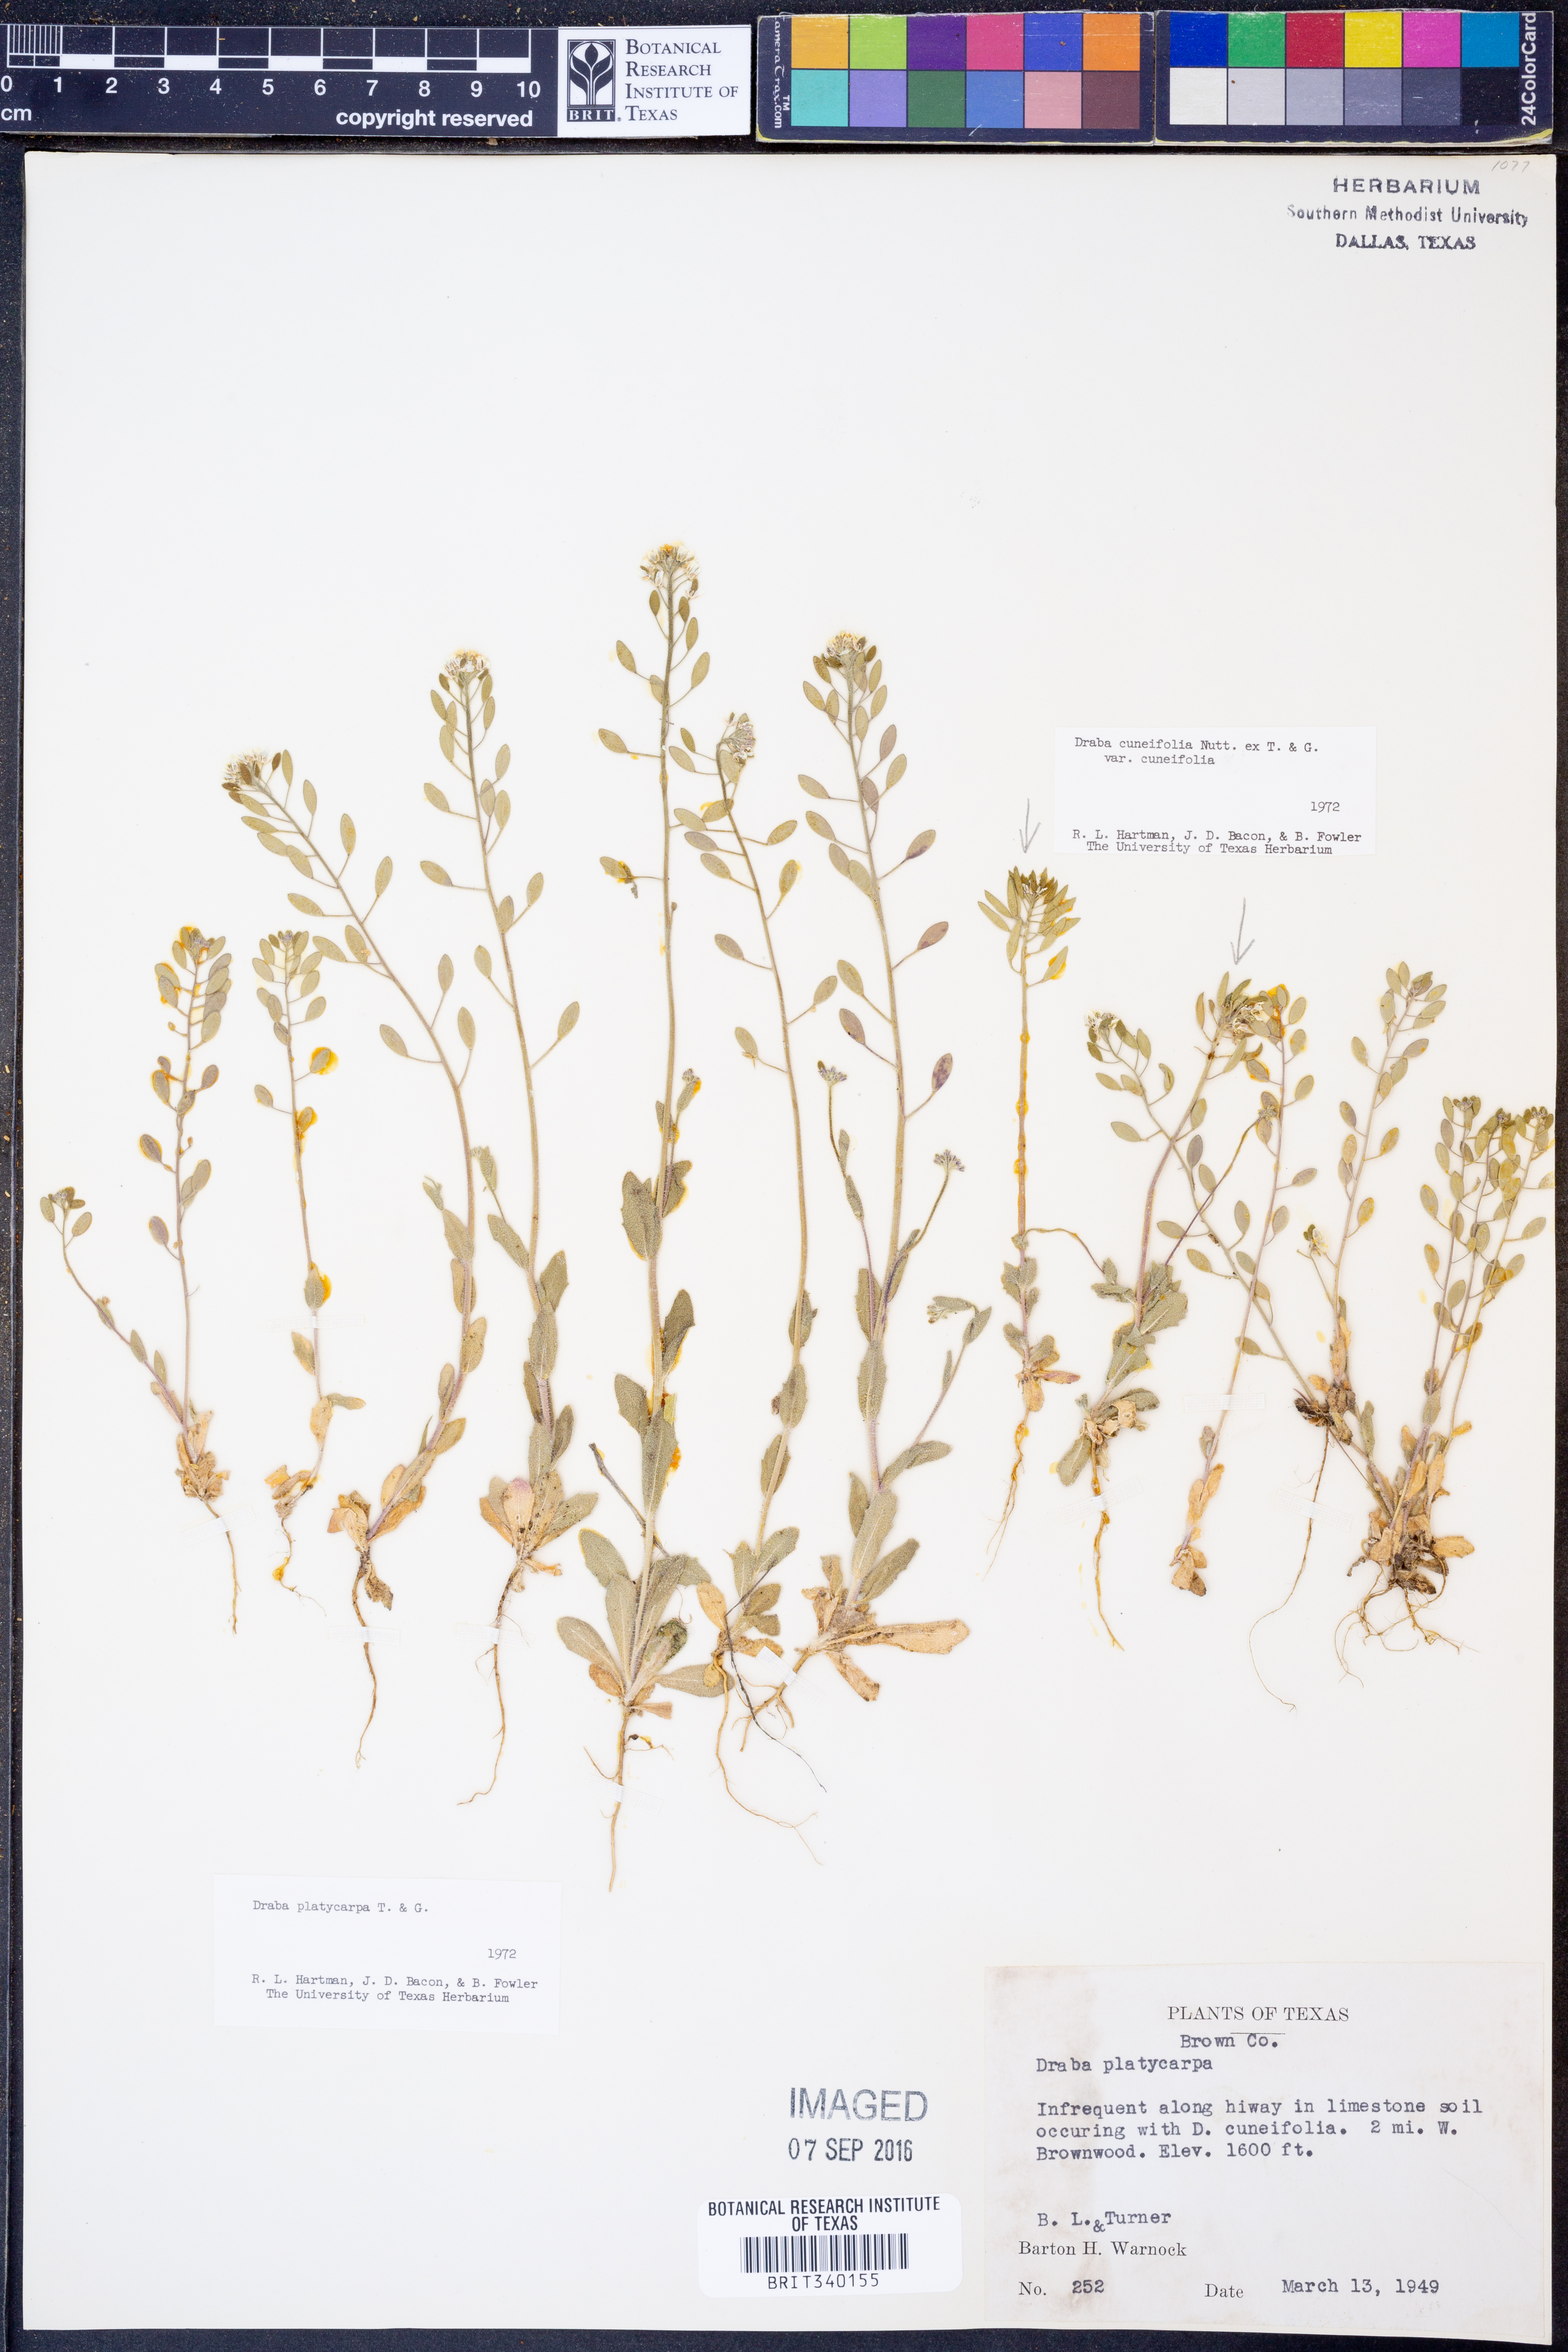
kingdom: Plantae
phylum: Tracheophyta
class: Magnoliopsida
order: Brassicales
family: Brassicaceae
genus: Tomostima
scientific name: Tomostima platycarpa
